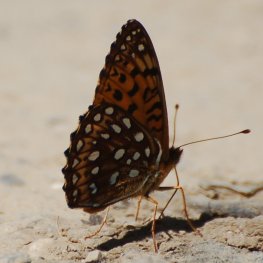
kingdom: Animalia
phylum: Arthropoda
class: Insecta
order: Lepidoptera
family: Nymphalidae
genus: Speyeria
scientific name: Speyeria atlantis
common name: Atlantis Fritillary
